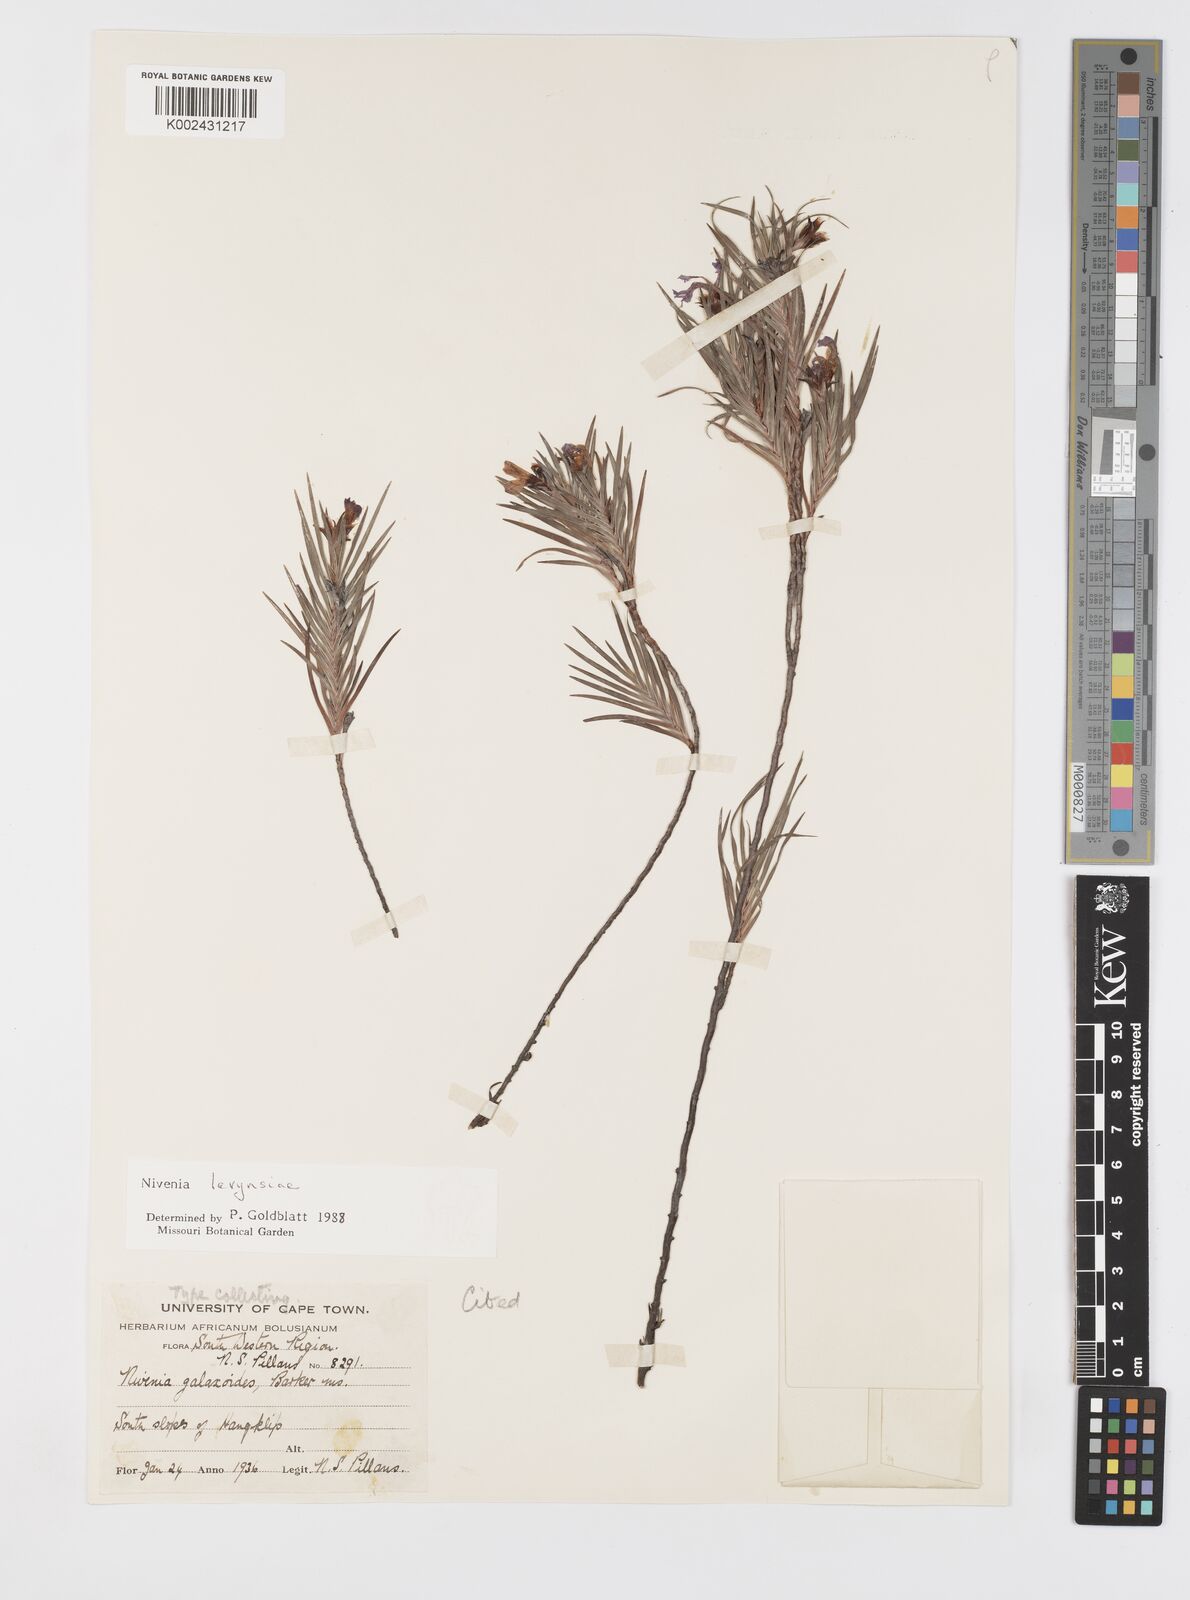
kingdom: Plantae
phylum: Tracheophyta
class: Liliopsida
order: Asparagales
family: Iridaceae
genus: Nivenia
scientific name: Nivenia levynsiae
